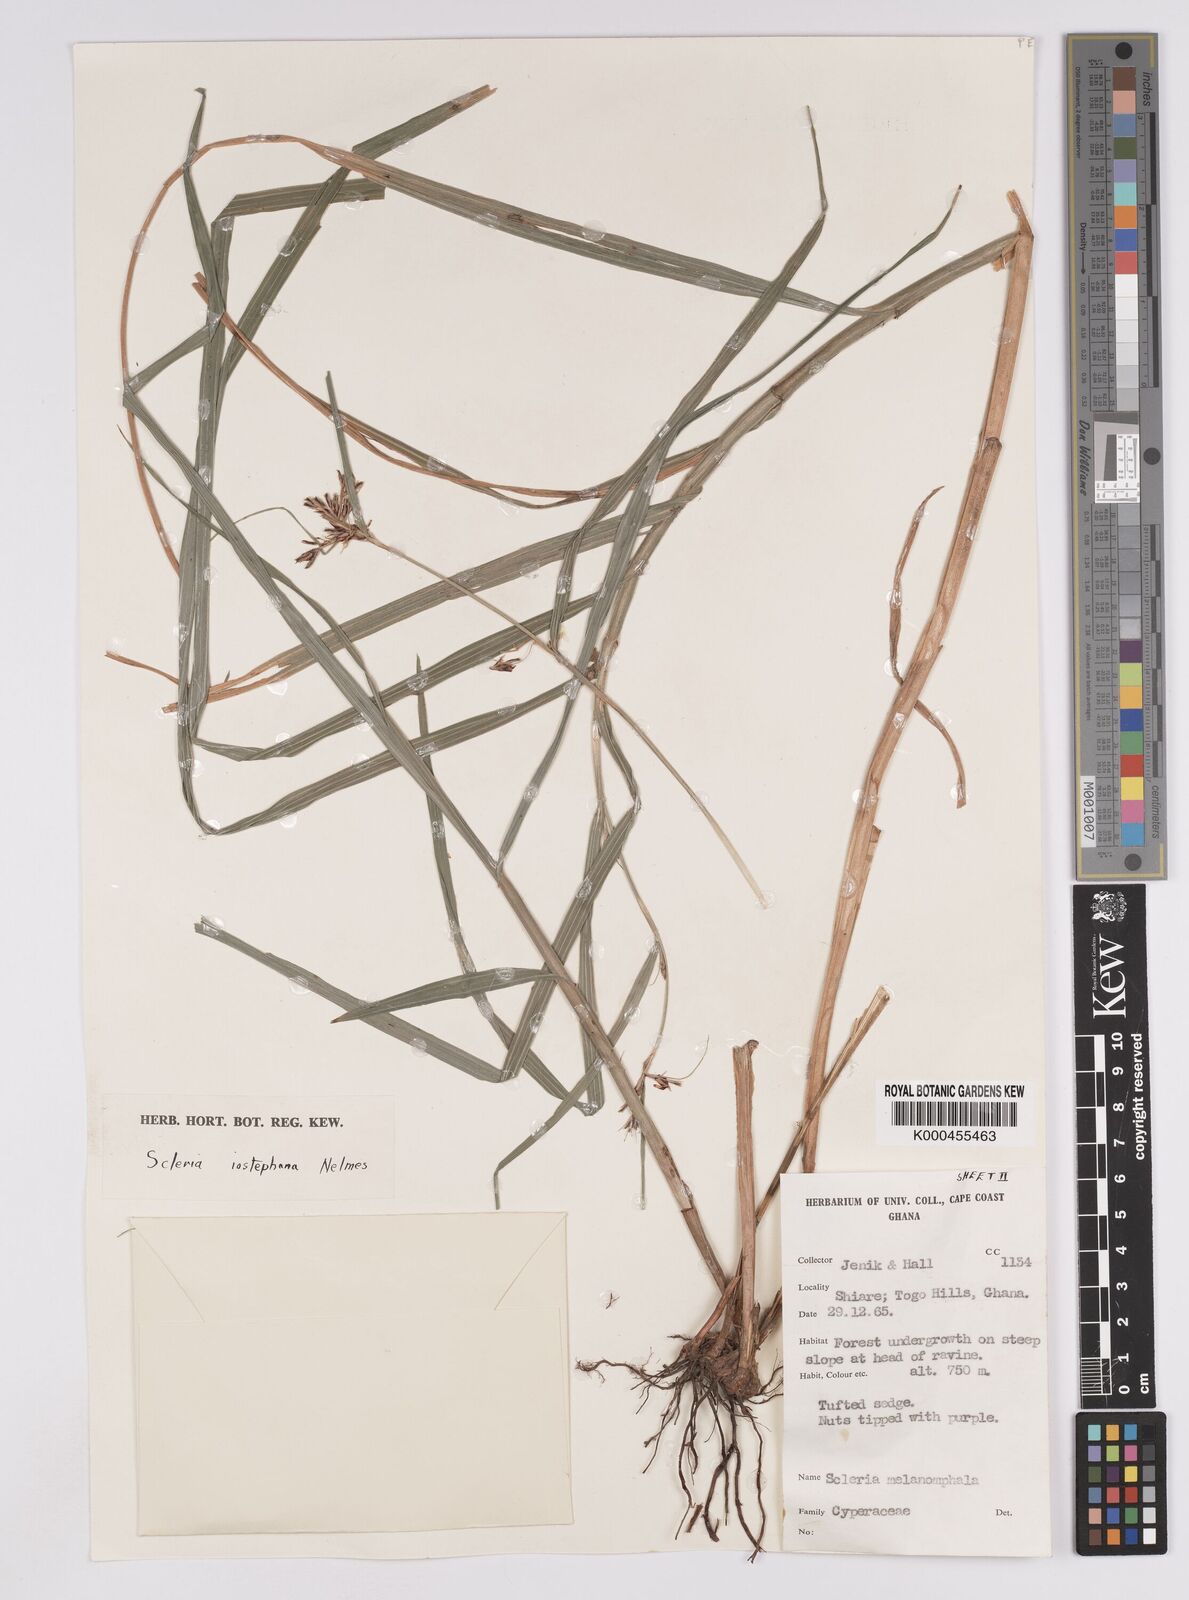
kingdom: Plantae
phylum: Tracheophyta
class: Liliopsida
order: Poales
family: Cyperaceae
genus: Scleria
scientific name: Scleria iostephana
